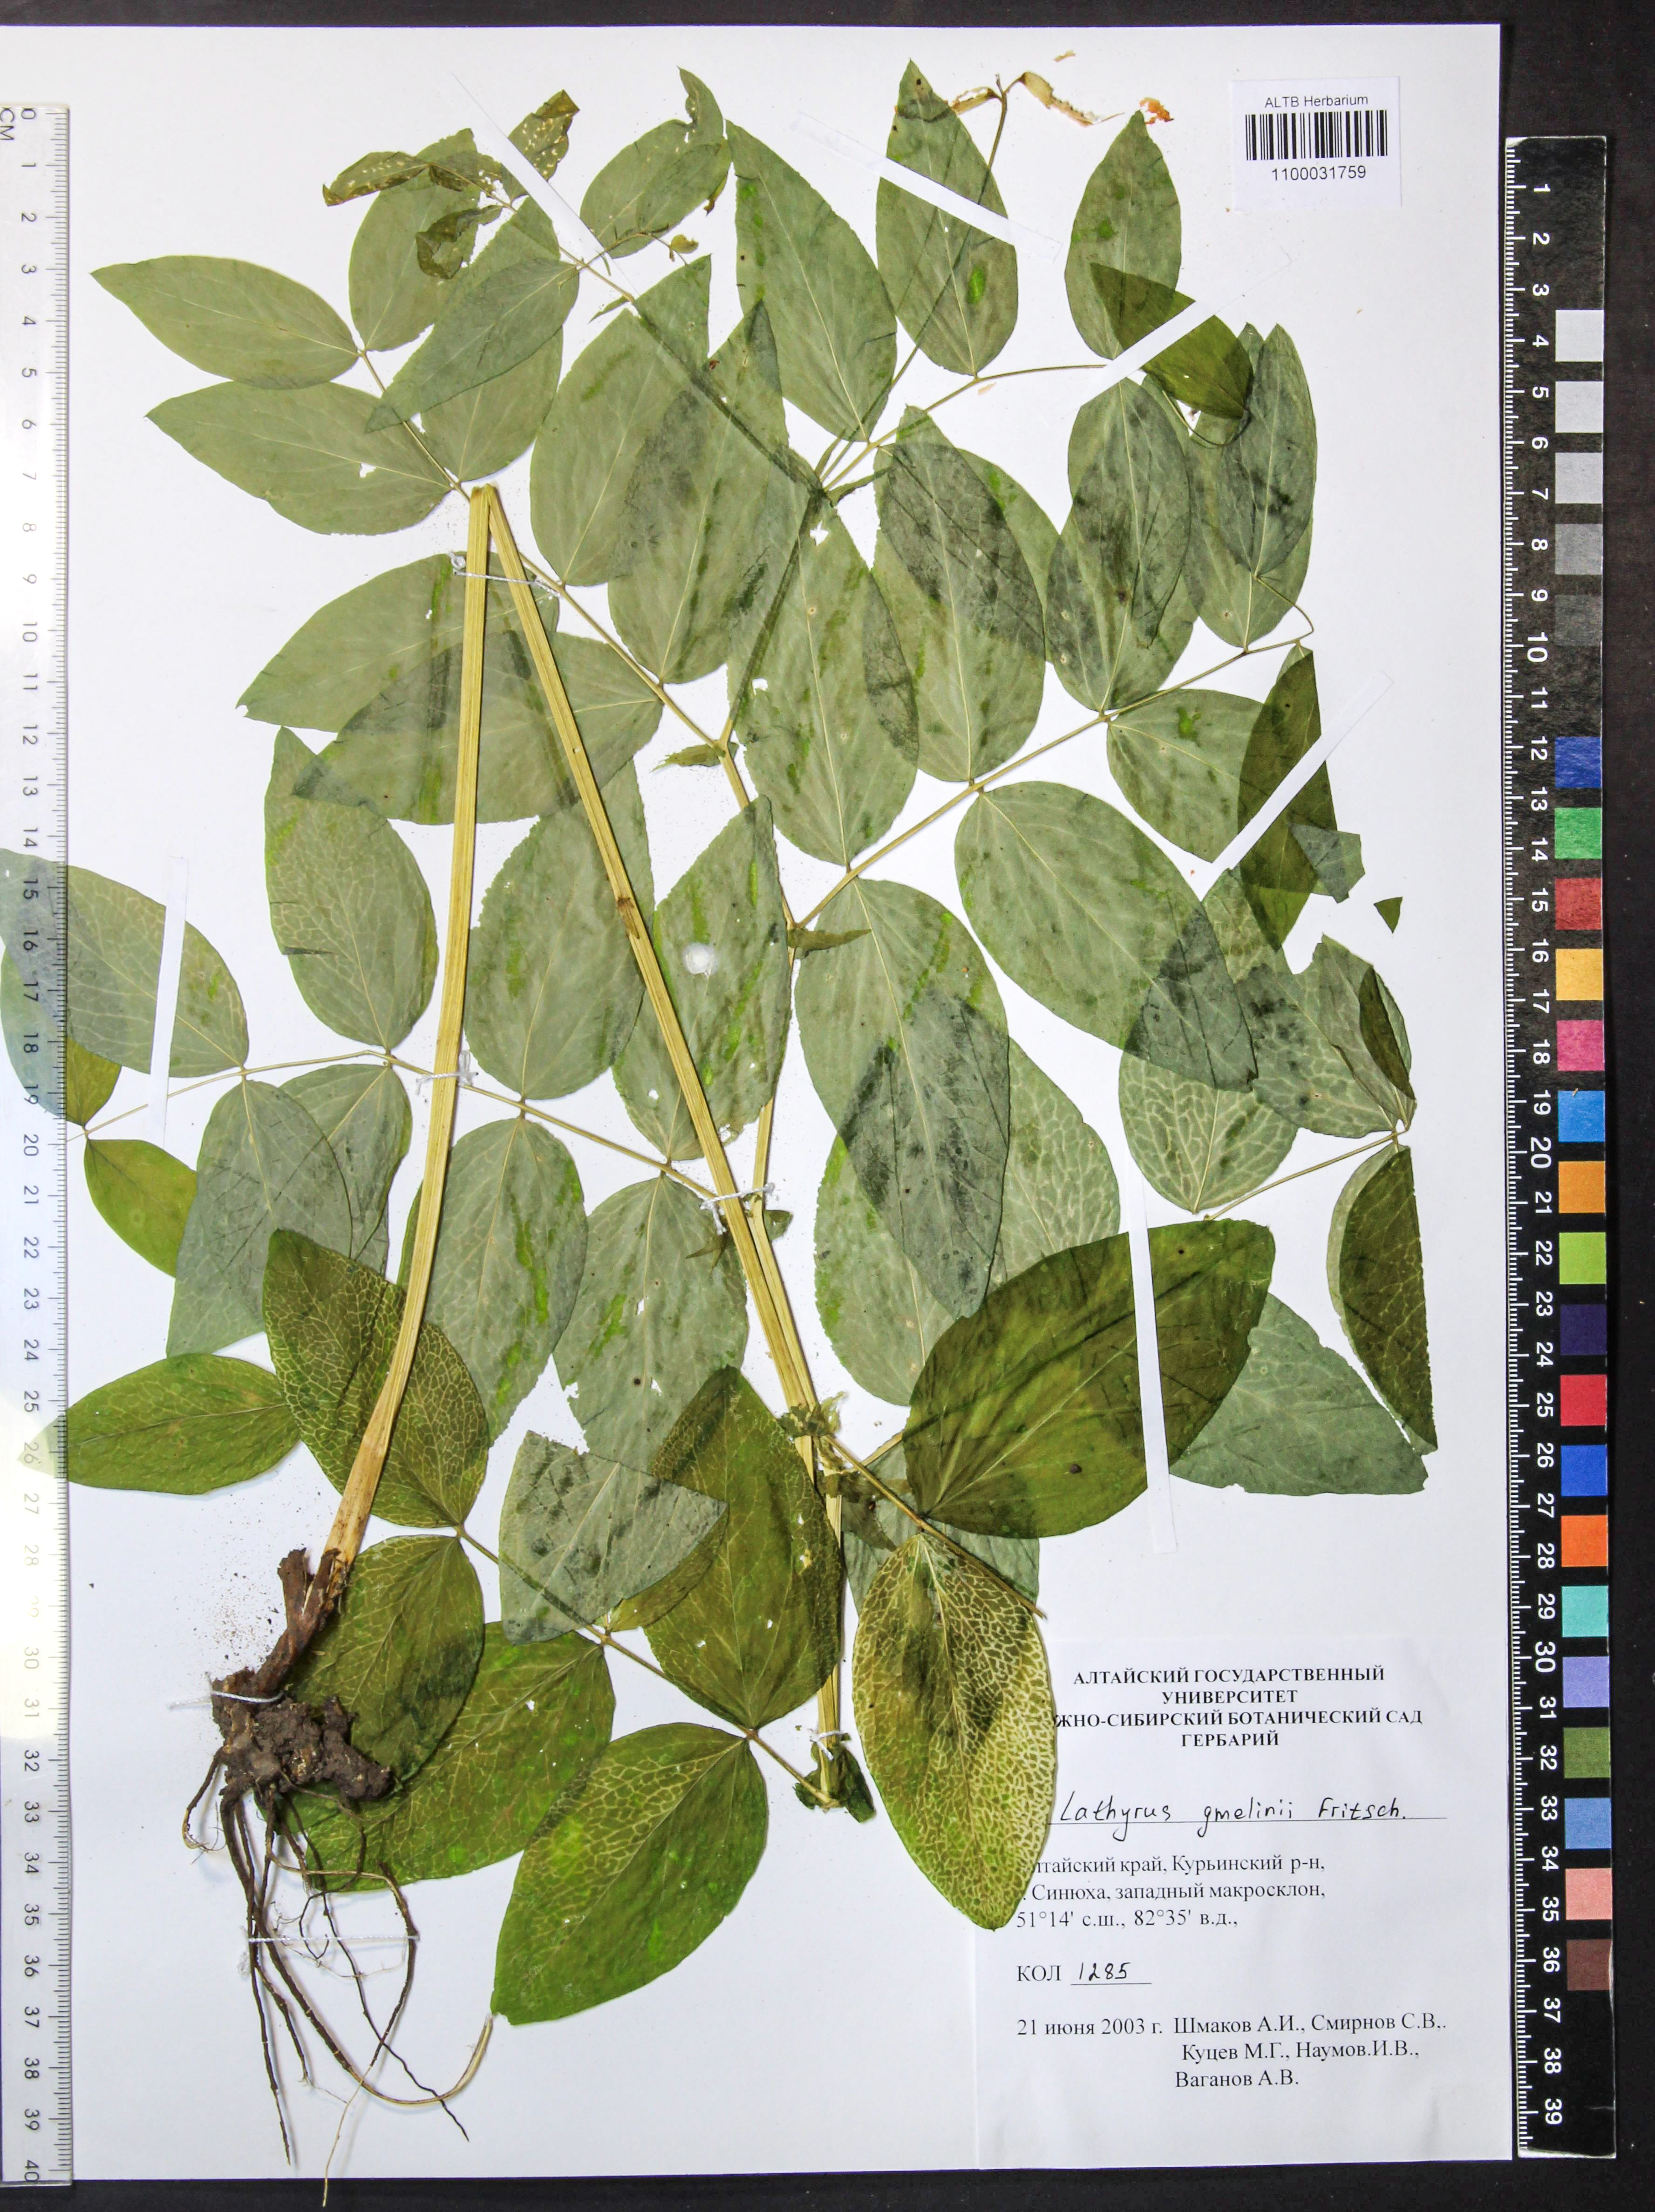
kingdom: Plantae
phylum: Tracheophyta
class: Magnoliopsida
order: Fabales
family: Fabaceae
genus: Lathyrus
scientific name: Lathyrus gmelinii
